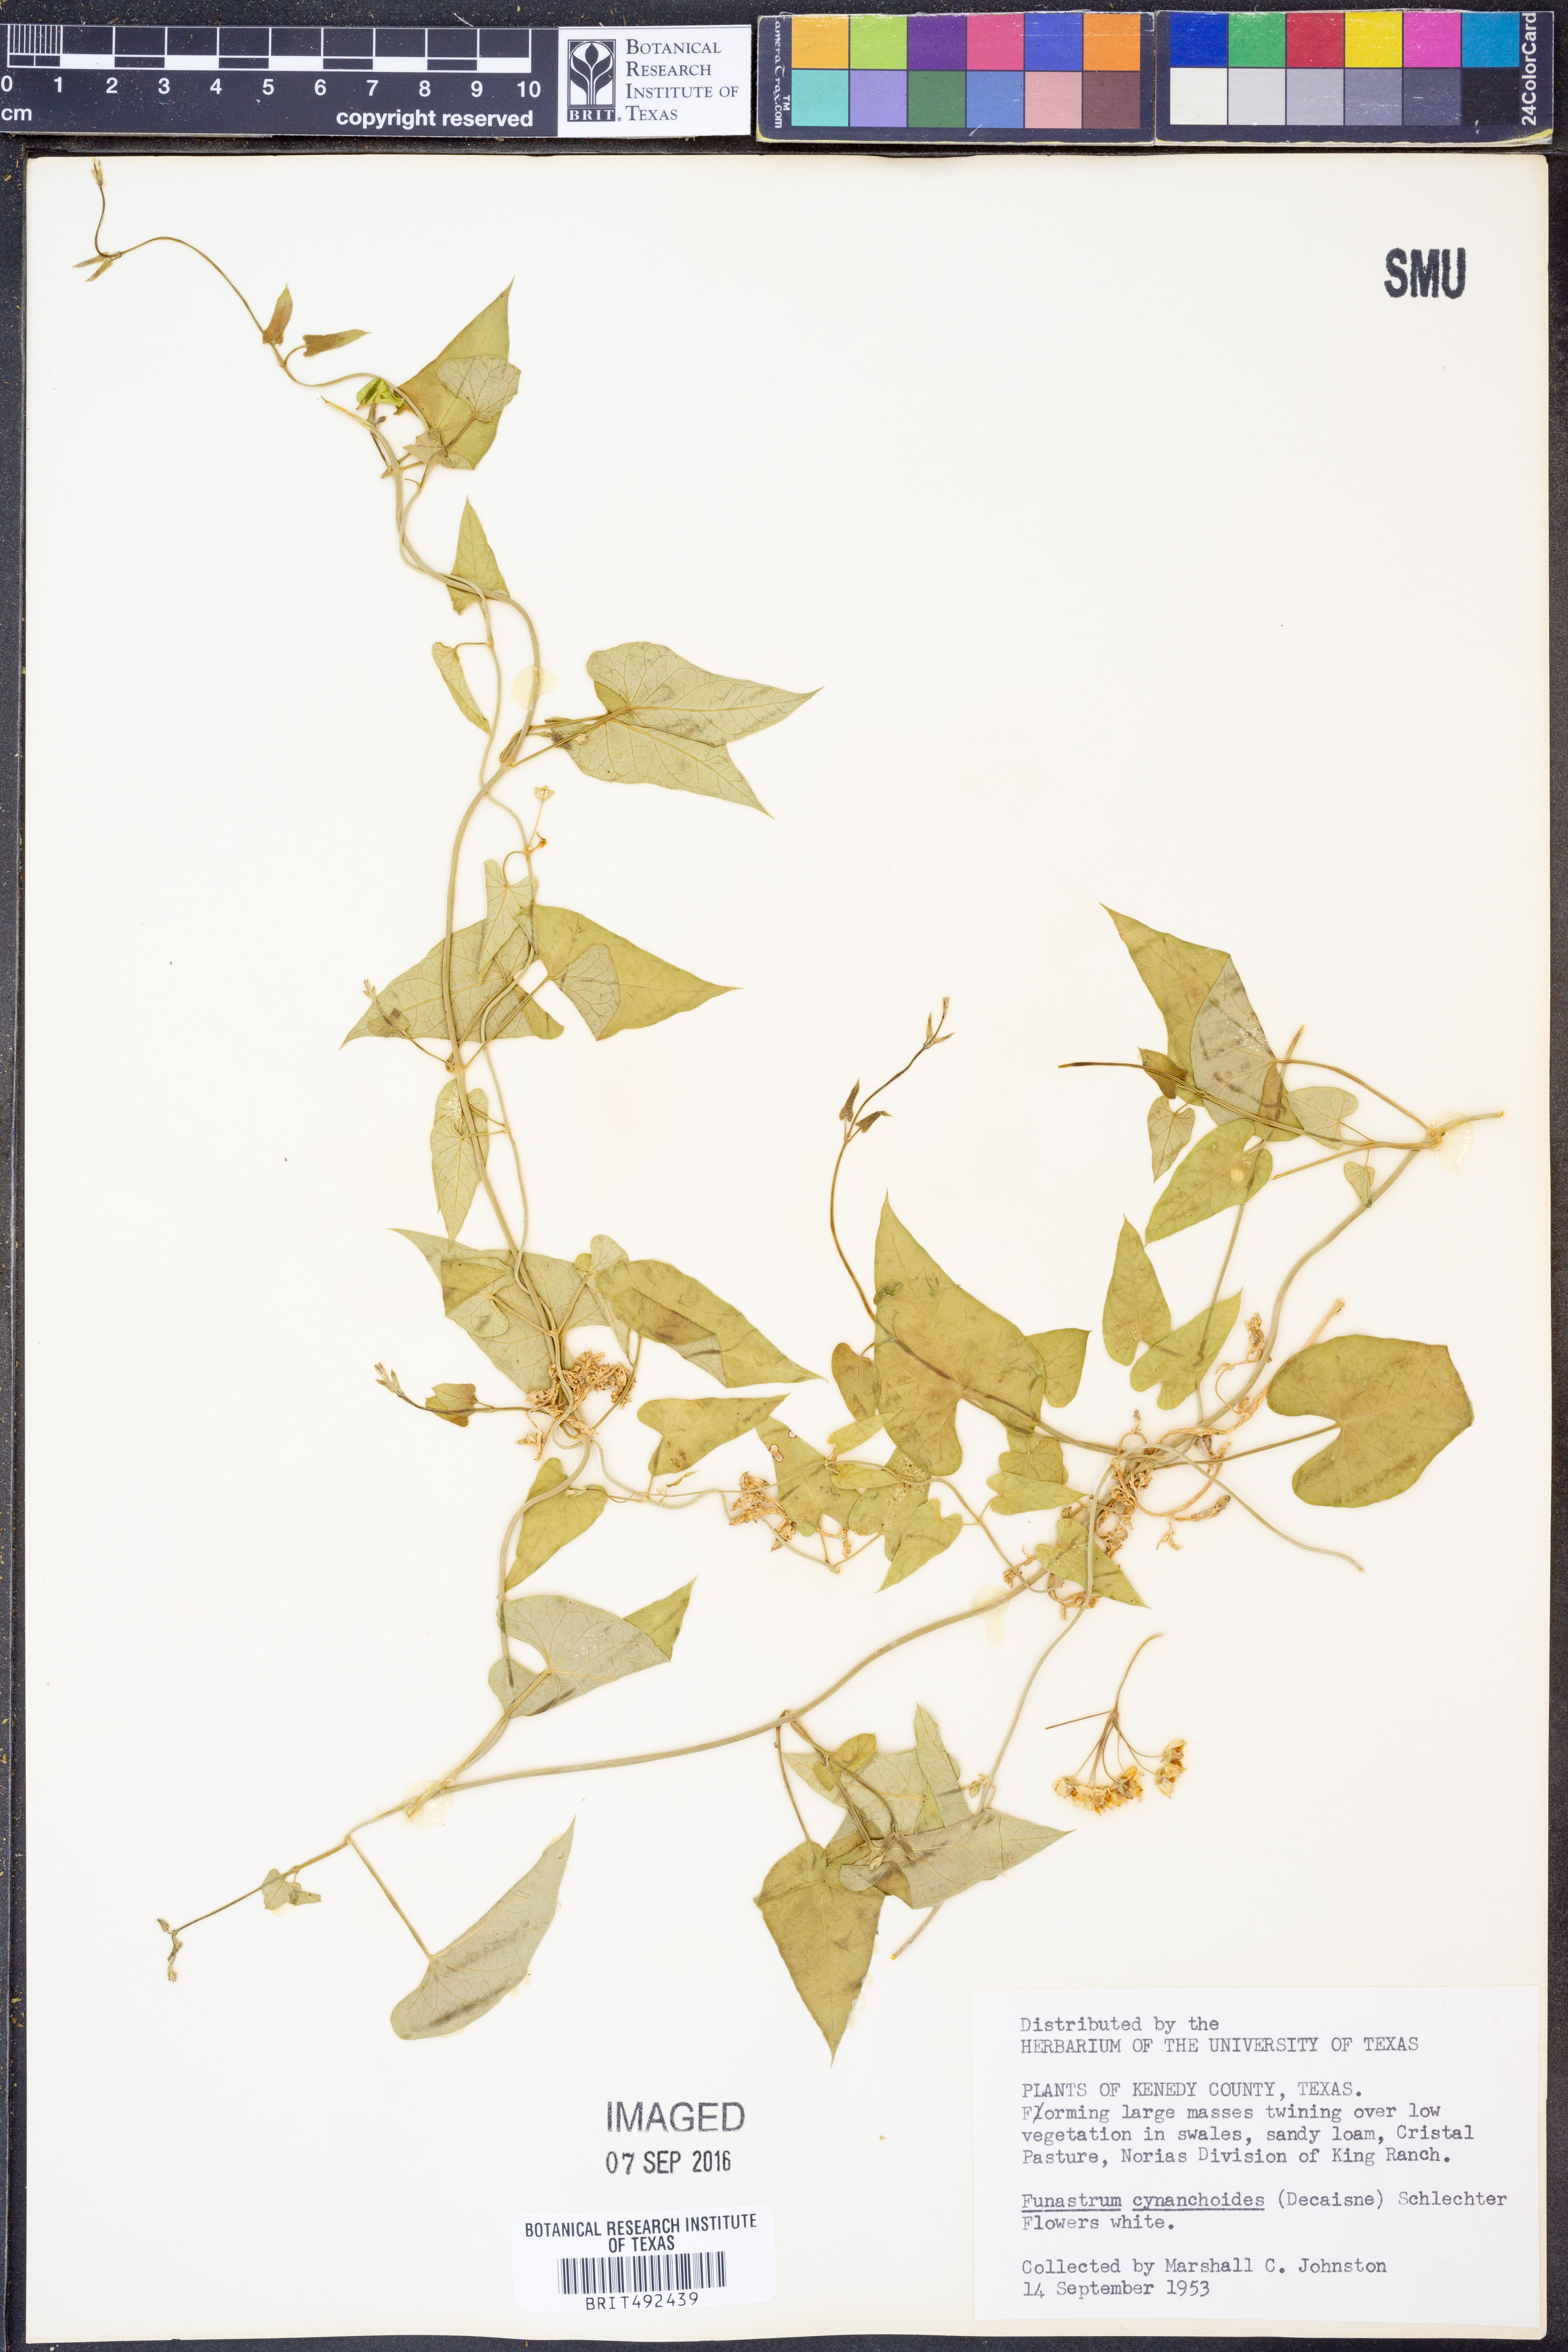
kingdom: Plantae
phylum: Tracheophyta
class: Magnoliopsida
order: Gentianales
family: Apocynaceae
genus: Funastrum
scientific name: Funastrum cynanchoides
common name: Climbing-milkweed
